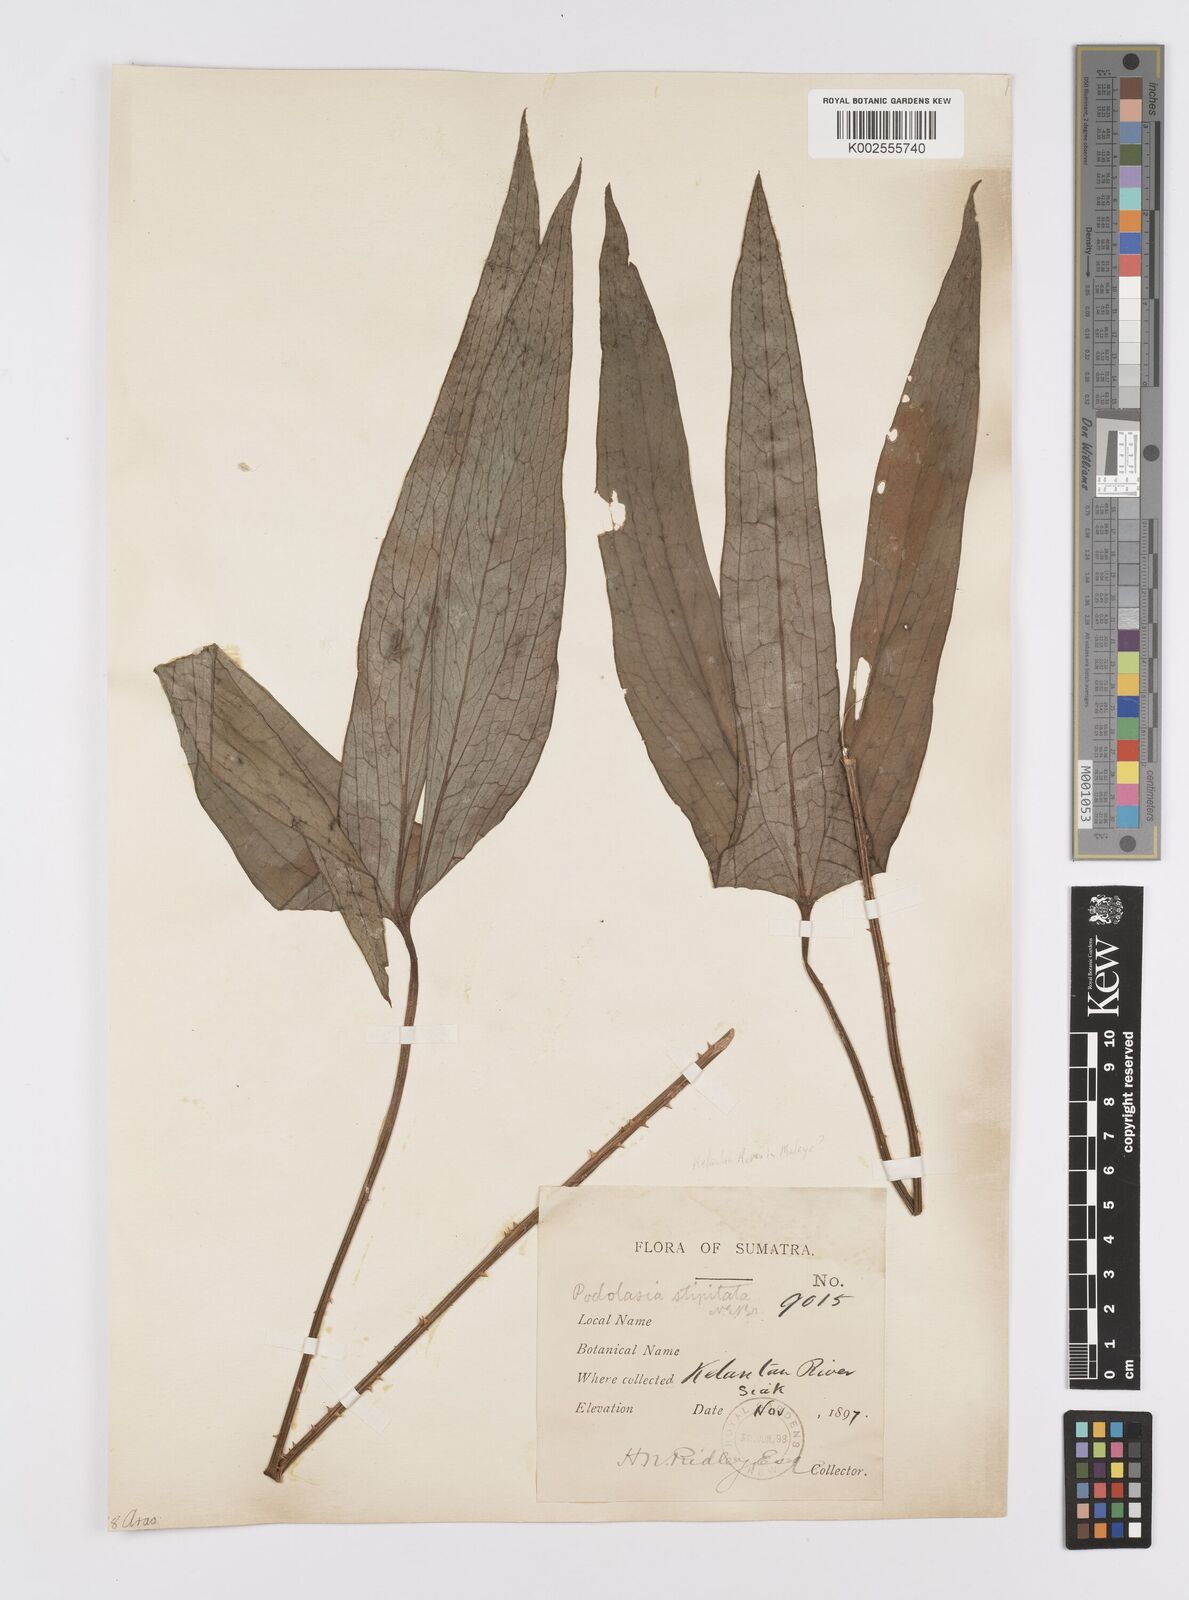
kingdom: Plantae
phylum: Tracheophyta
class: Liliopsida
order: Alismatales
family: Araceae
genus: Podolasia
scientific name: Podolasia stipitata
